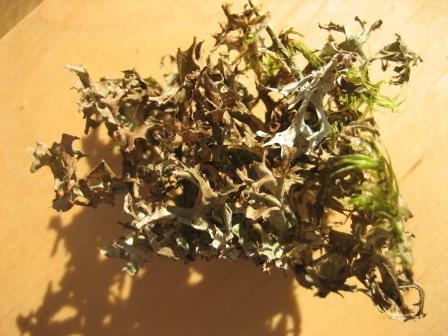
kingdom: Fungi
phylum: Ascomycota
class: Lecanoromycetes
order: Lecanorales
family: Parmeliaceae
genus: Cetraria
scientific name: Cetraria islandica
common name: islandsk kruslav
